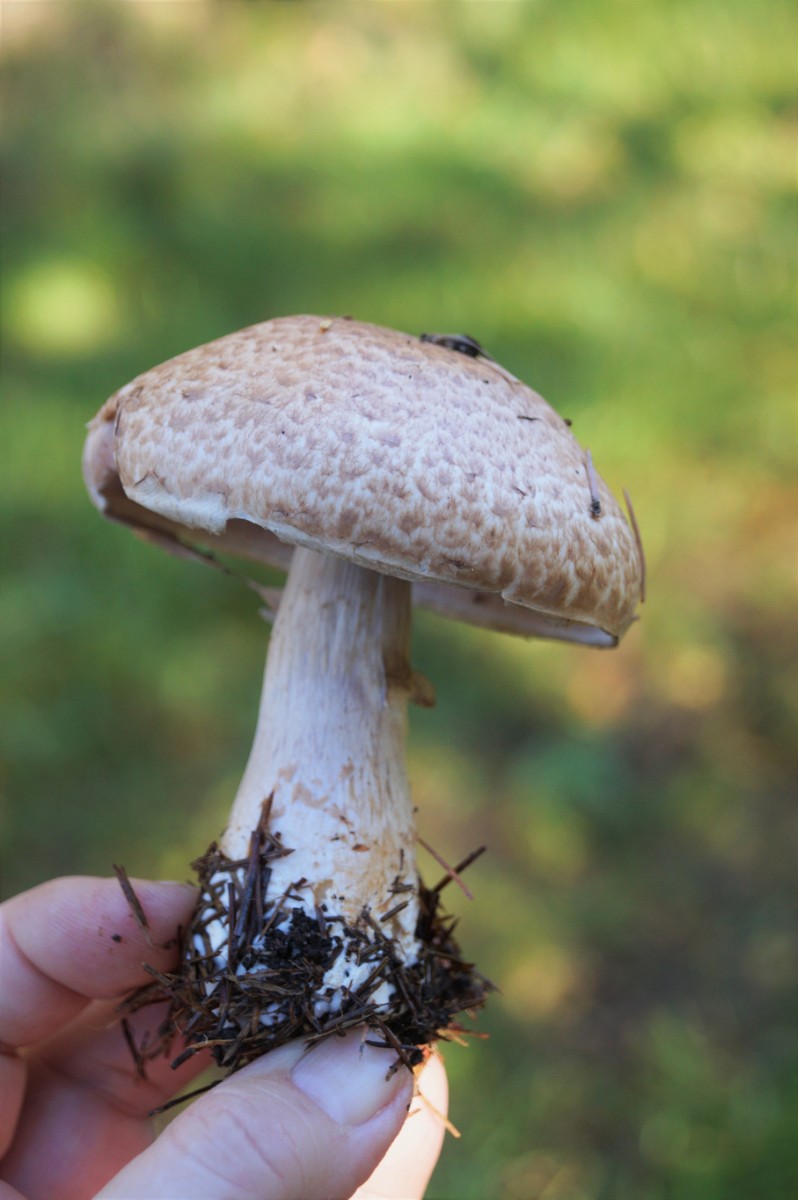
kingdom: Fungi
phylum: Basidiomycota
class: Agaricomycetes
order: Agaricales
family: Agaricaceae
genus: Agaricus
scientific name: Agaricus
